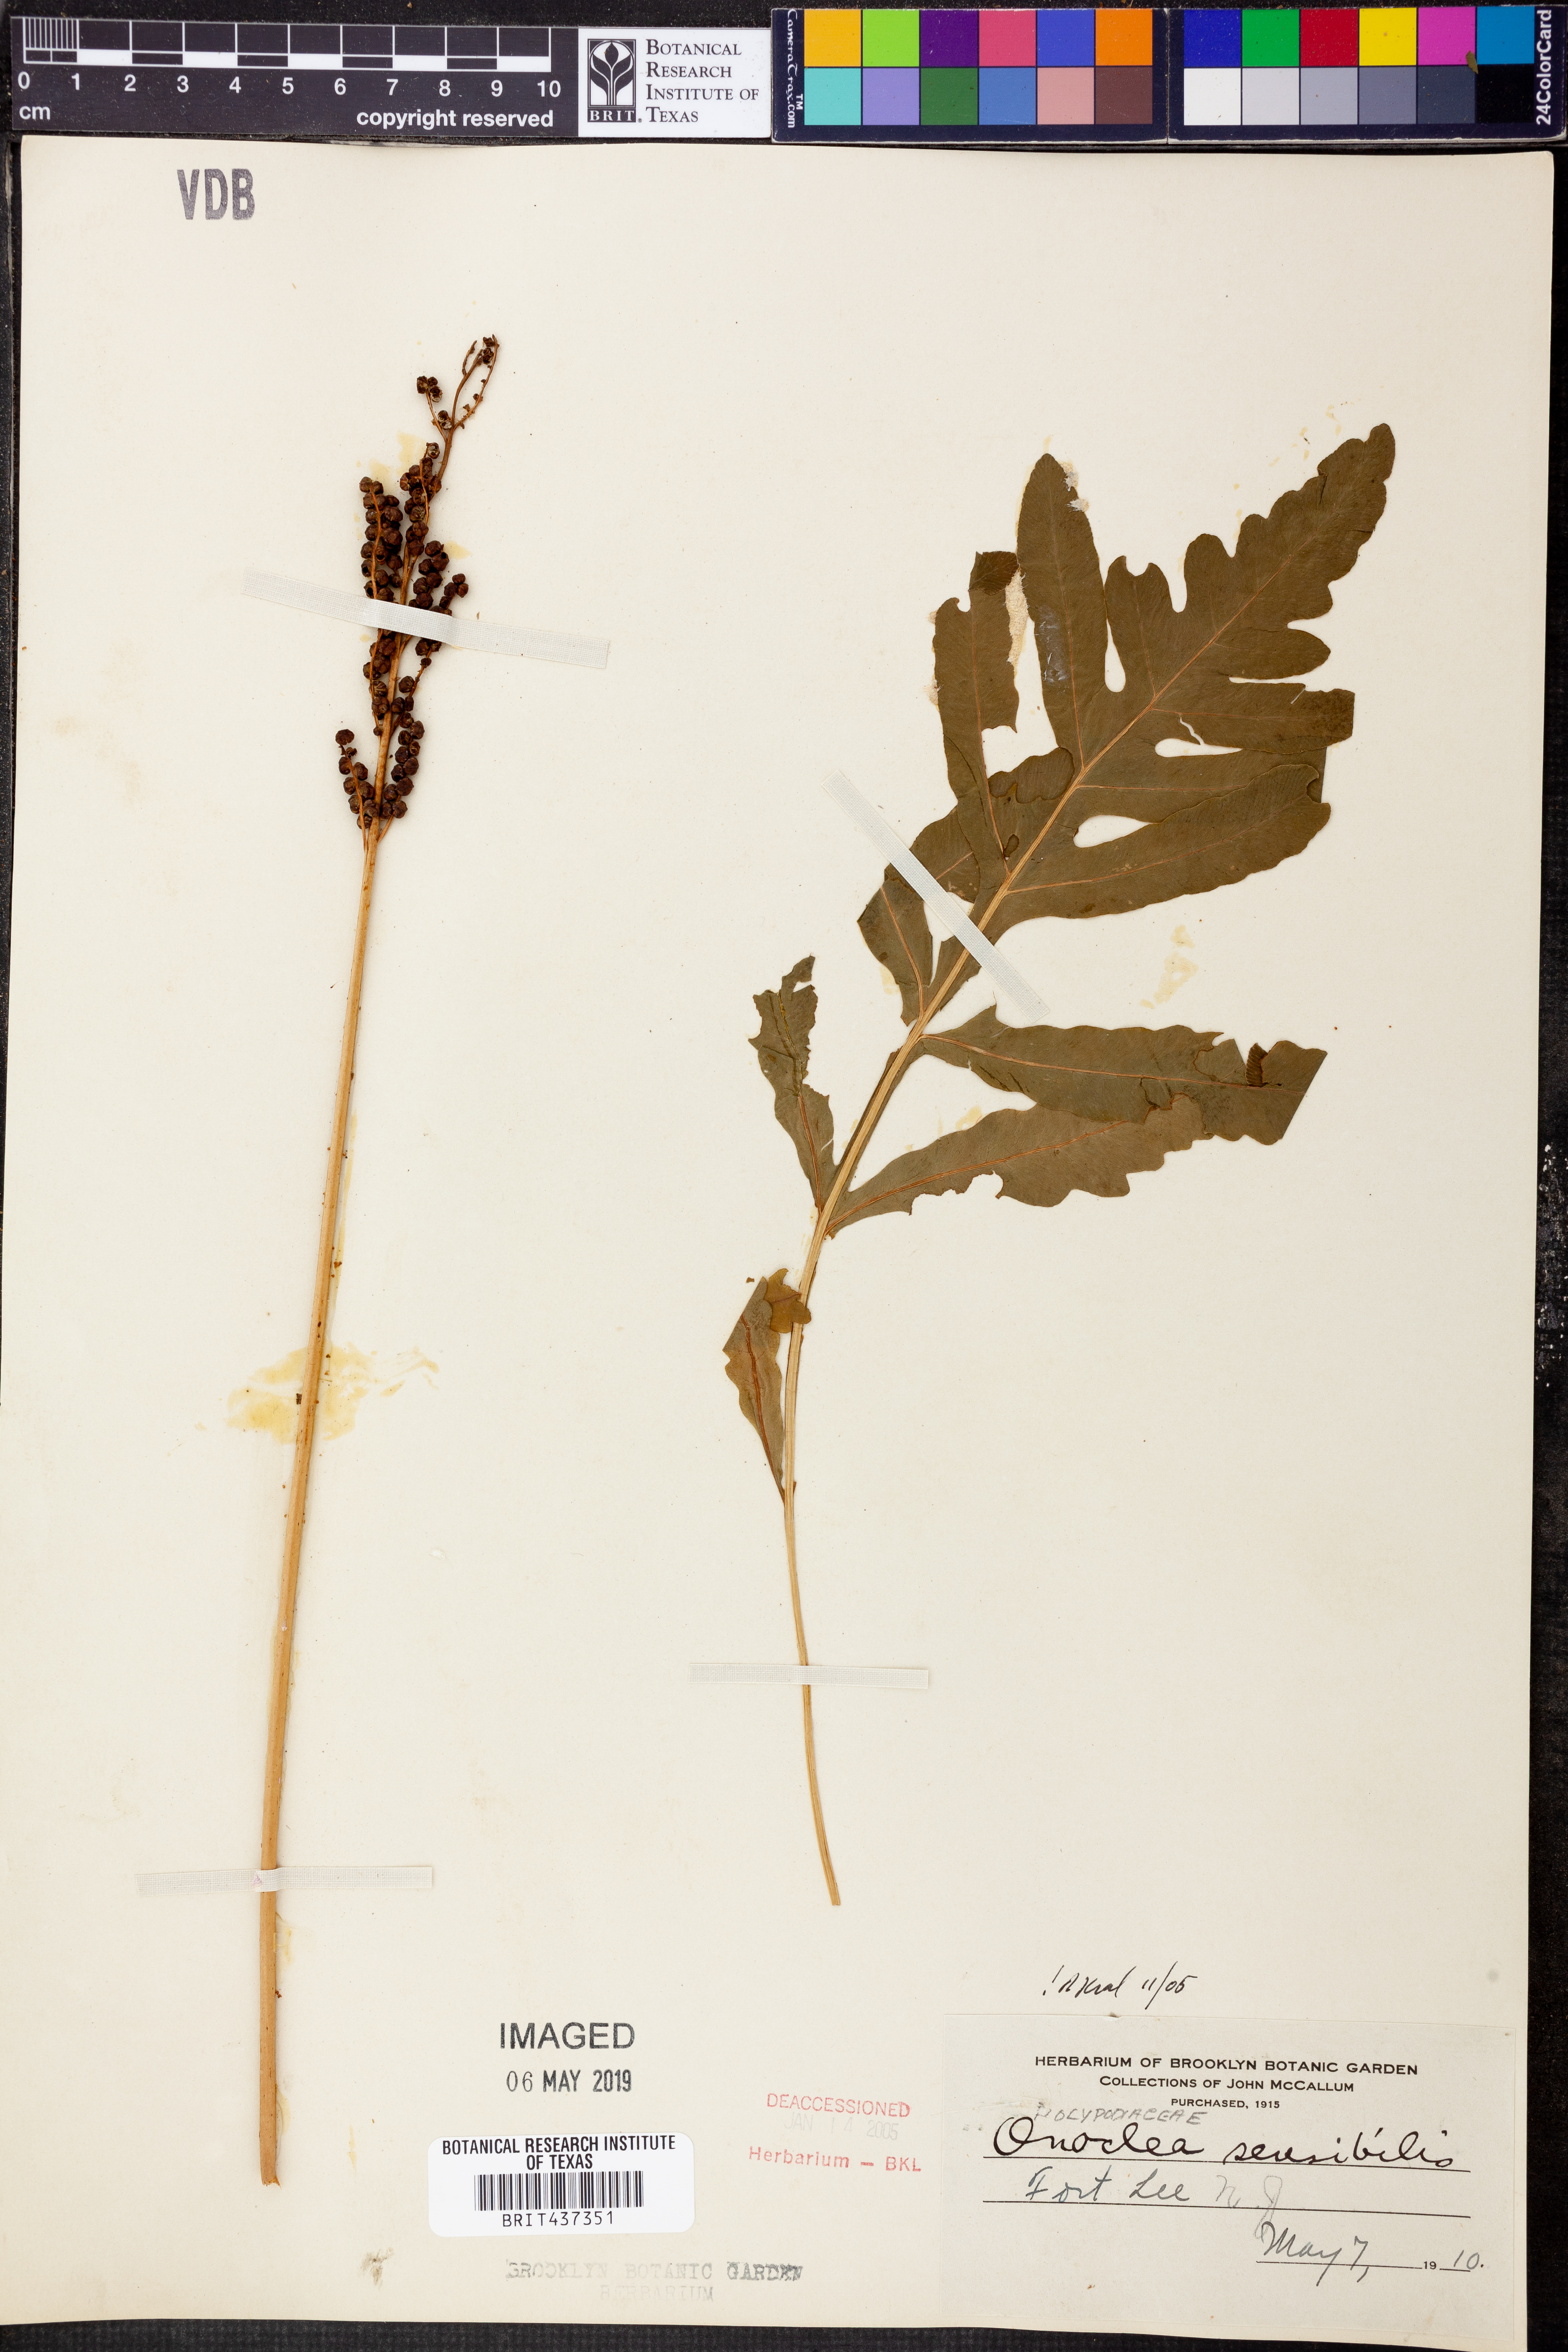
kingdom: Plantae
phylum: Tracheophyta
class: Polypodiopsida
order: Polypodiales
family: Onocleaceae
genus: Onoclea
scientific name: Onoclea sensibilis
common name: Sensitive fern
